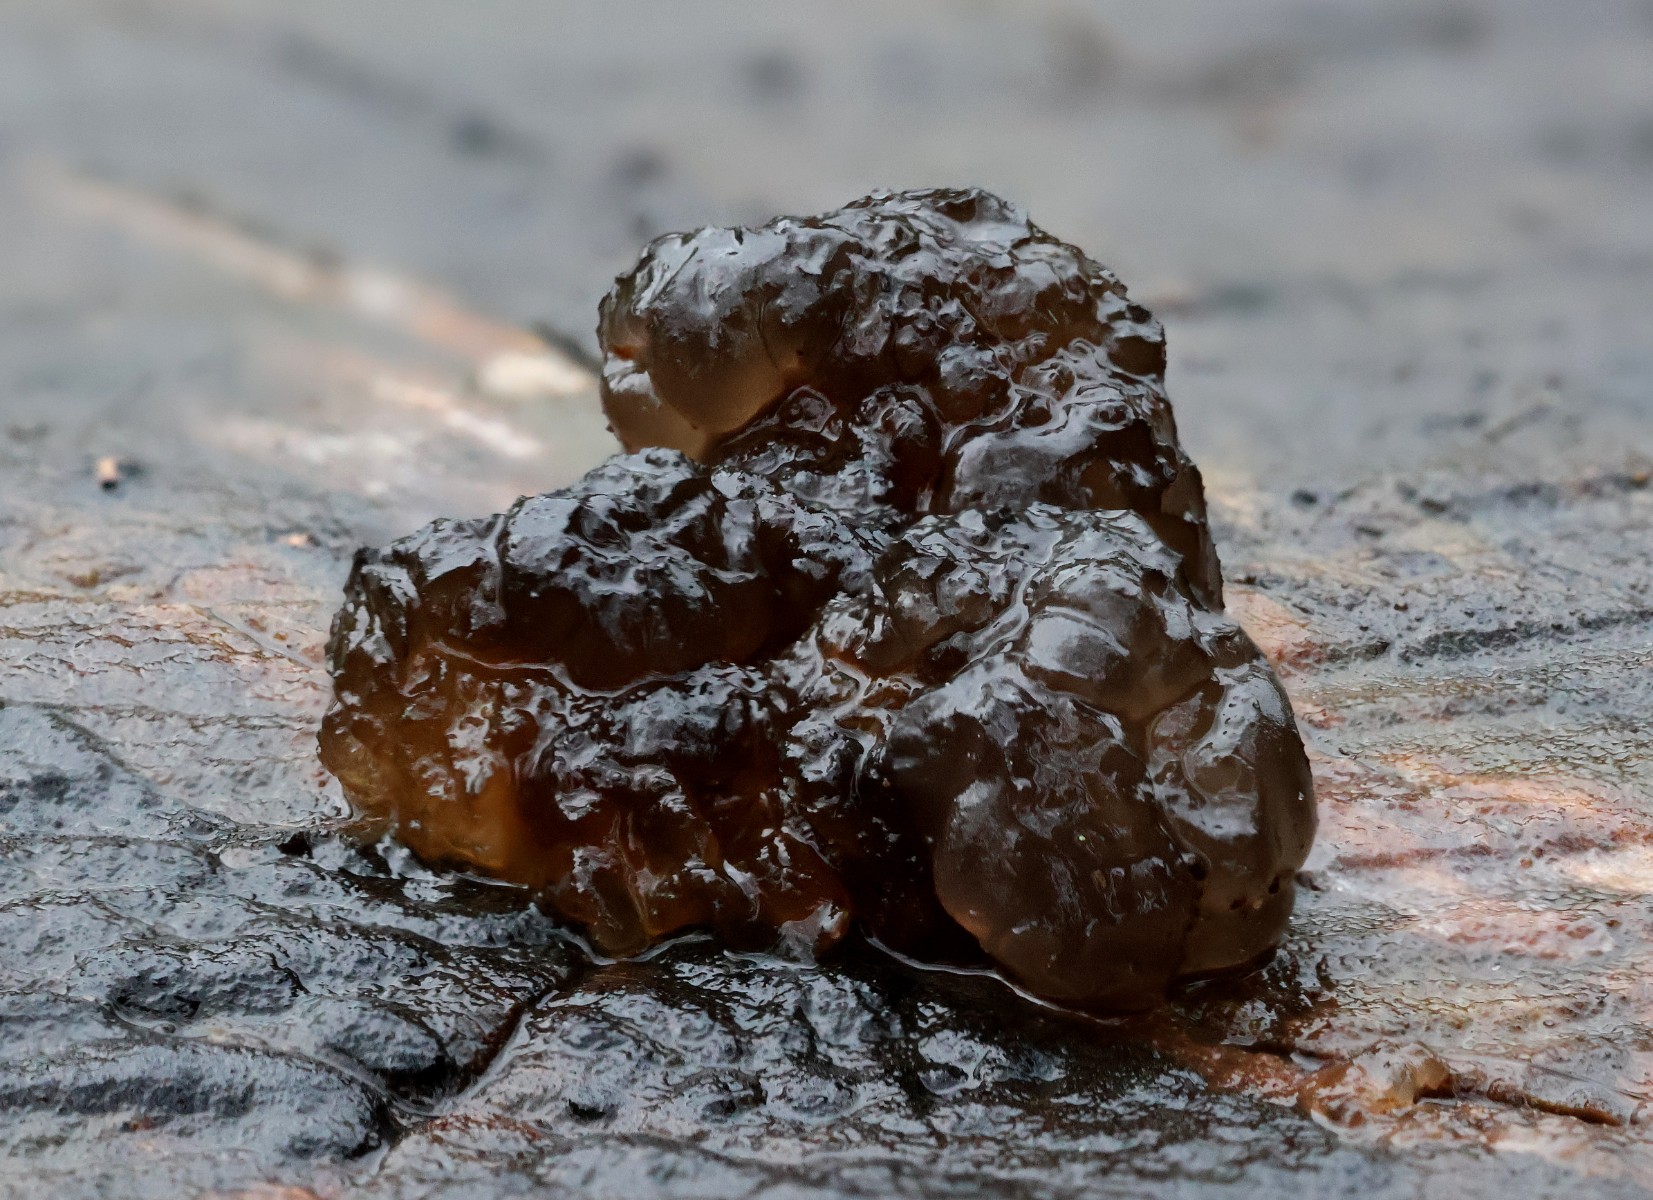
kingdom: Fungi
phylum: Basidiomycota
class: Agaricomycetes
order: Auriculariales
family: Auriculariaceae
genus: Exidia
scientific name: Exidia nigricans
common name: almindelig bævretop
